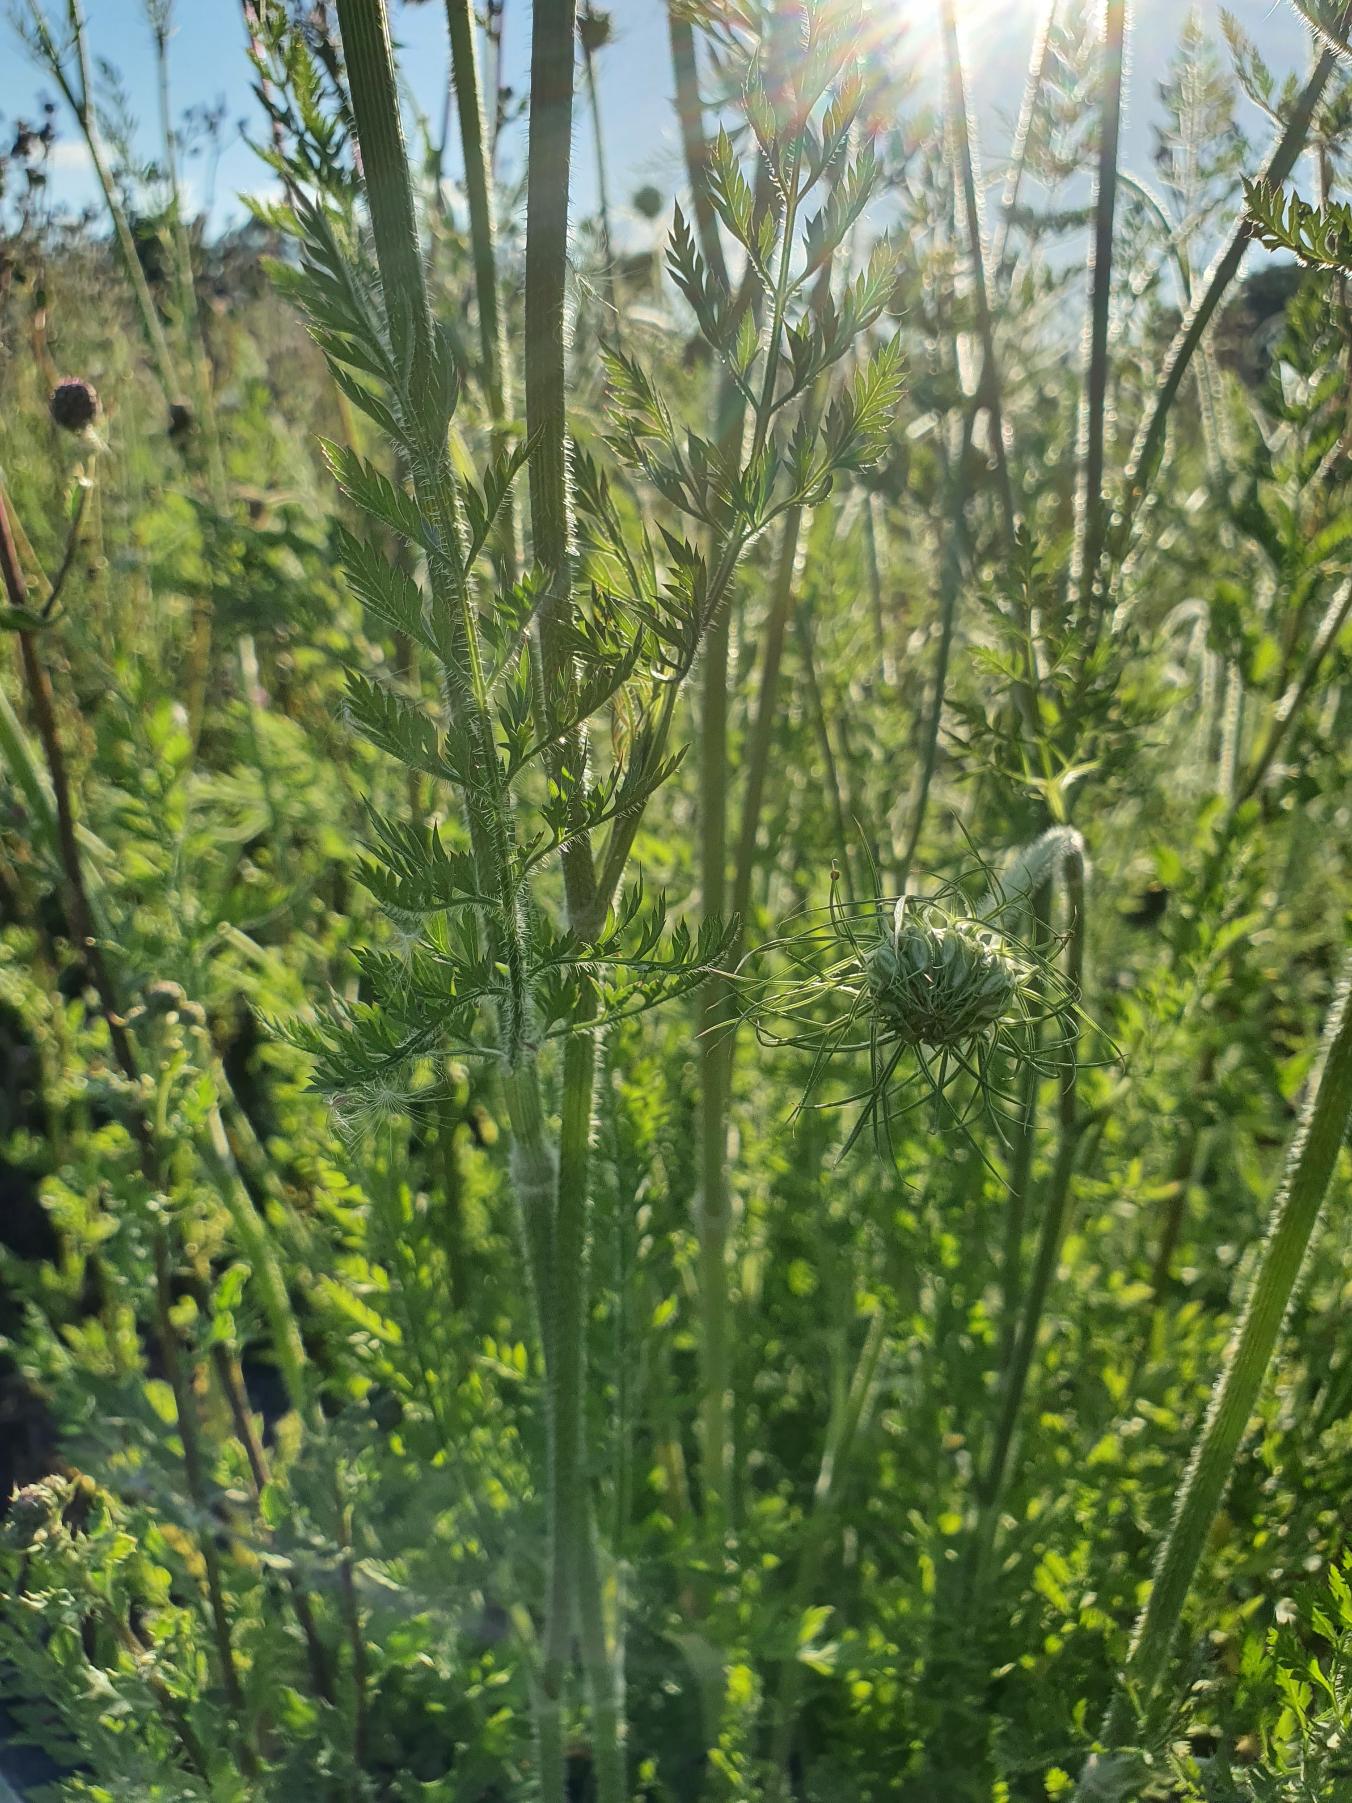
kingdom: Plantae
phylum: Tracheophyta
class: Magnoliopsida
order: Apiales
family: Apiaceae
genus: Daucus
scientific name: Daucus carota
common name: Vild gulerod
